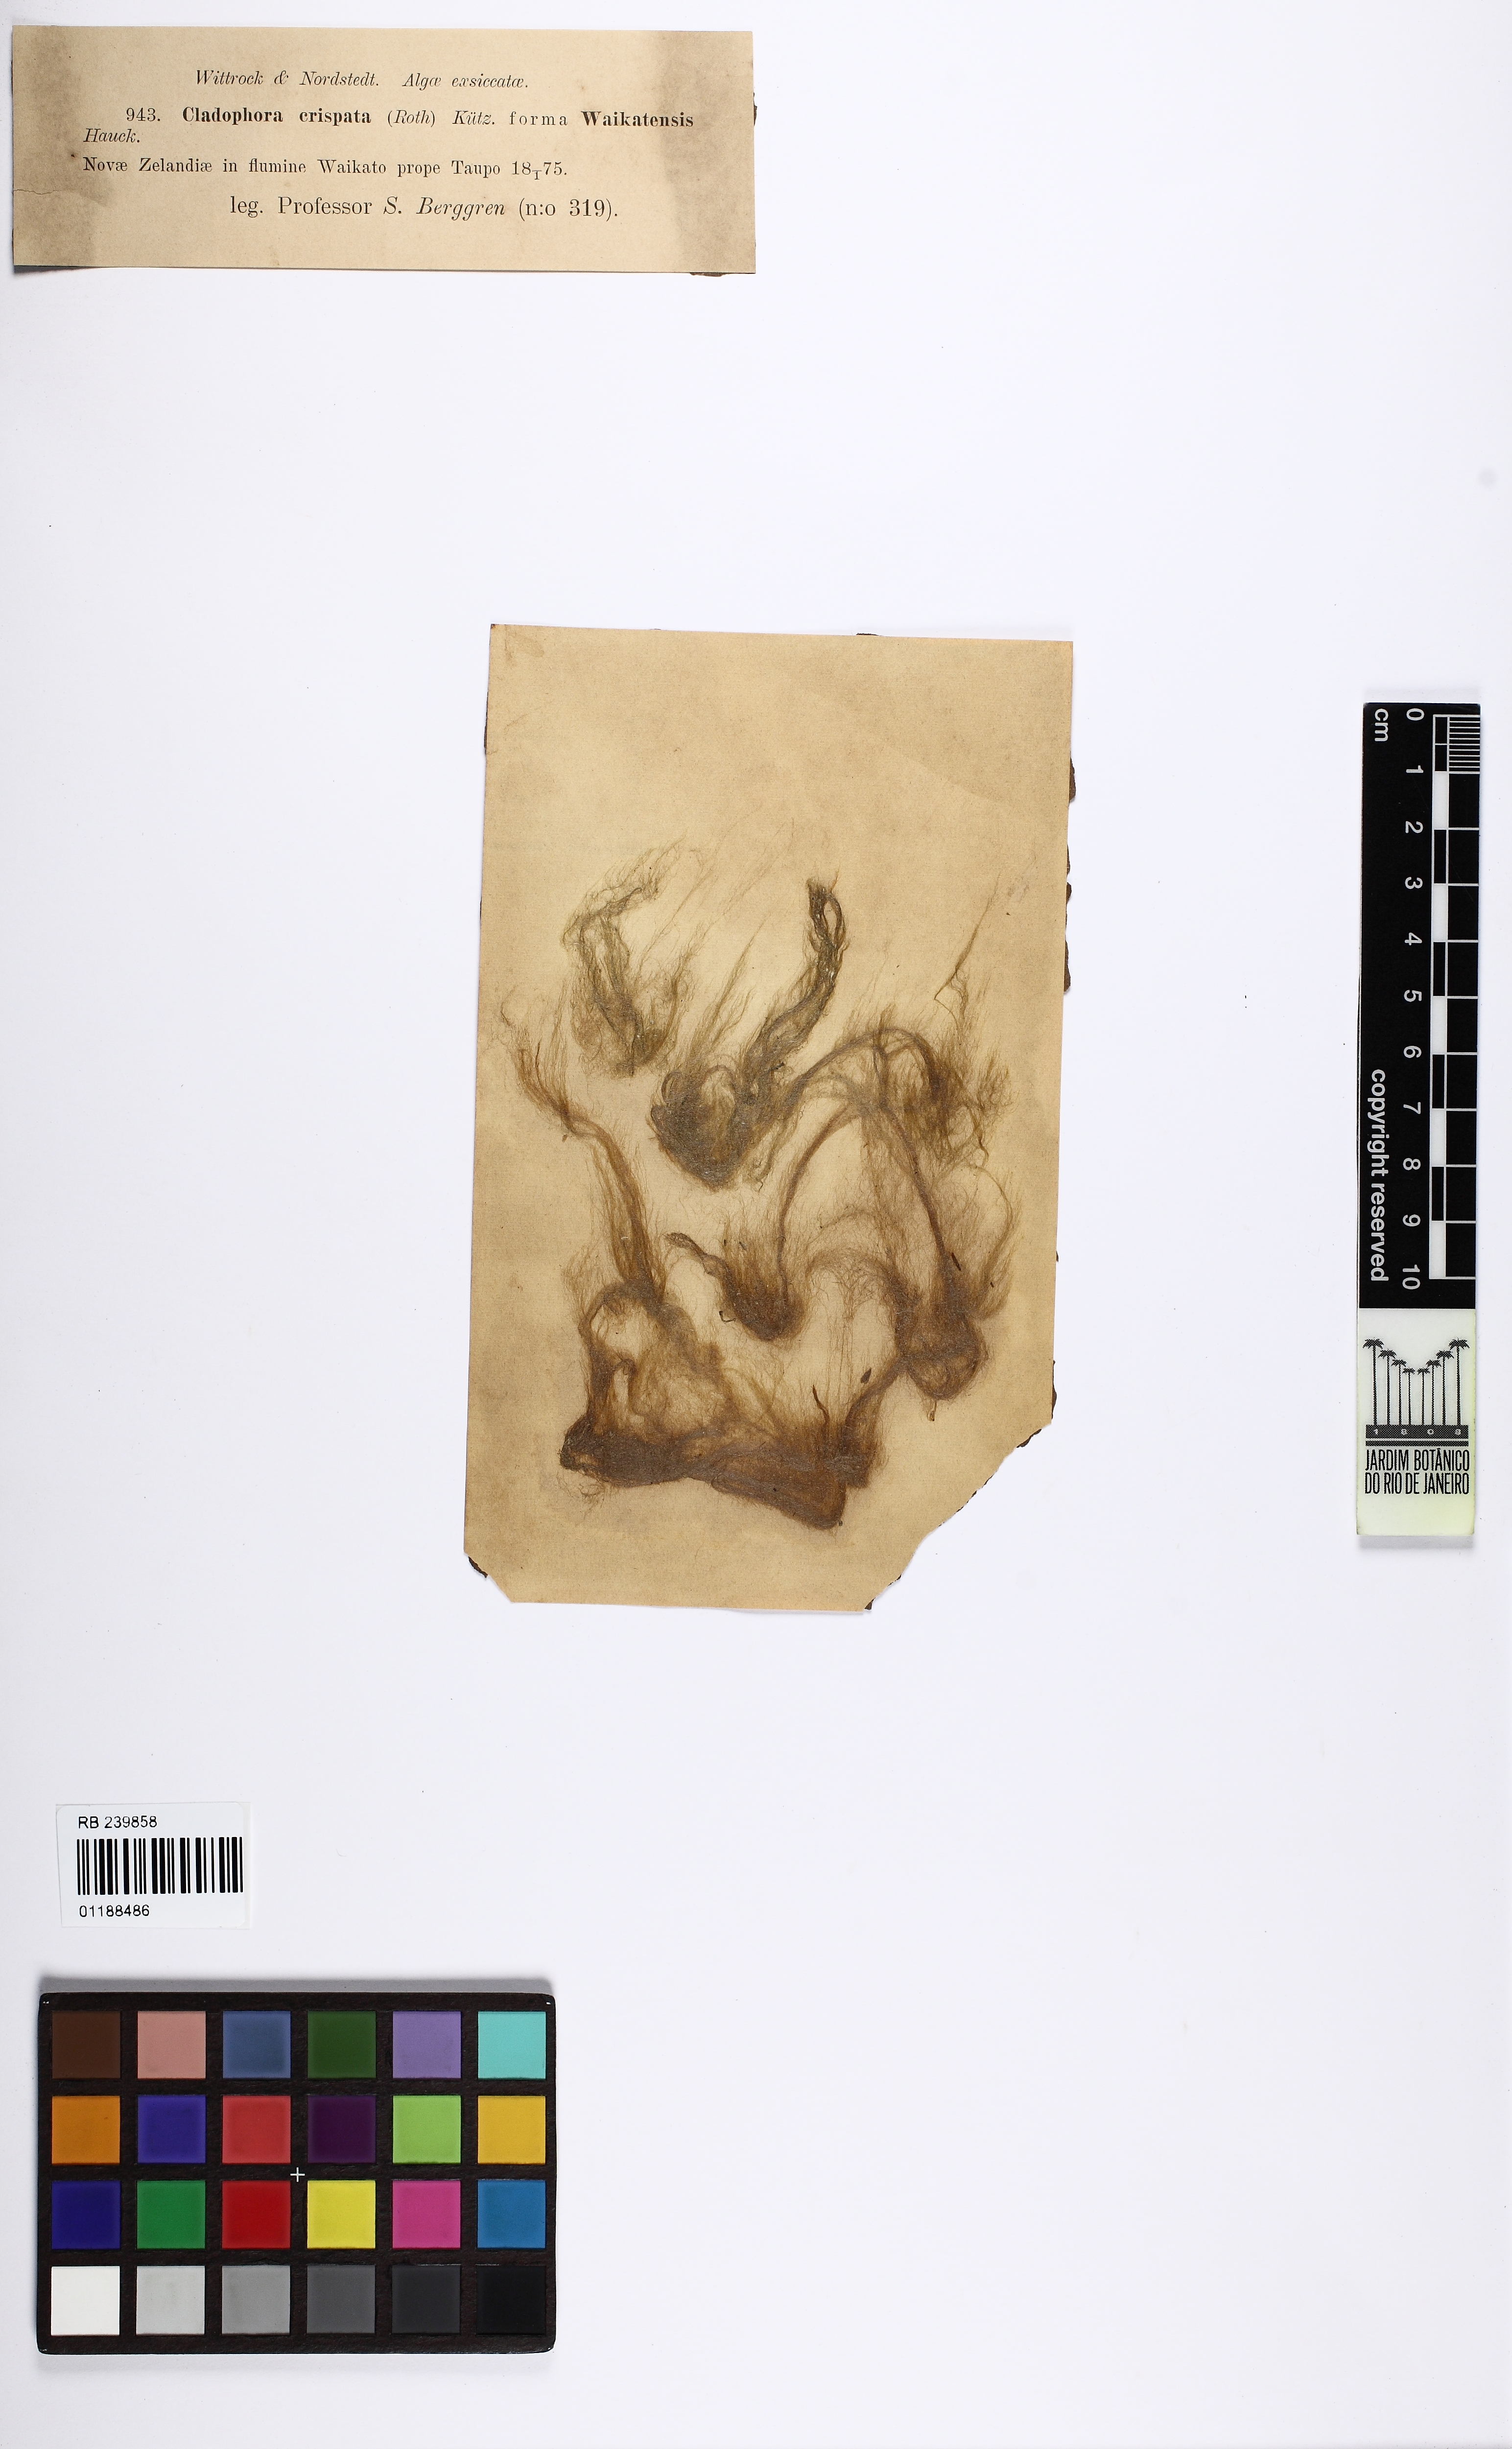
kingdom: Plantae
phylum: Chlorophyta
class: Ulvophyceae
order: Cladophorales
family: Cladophoraceae
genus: Cladophora
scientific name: Cladophora glomerata
